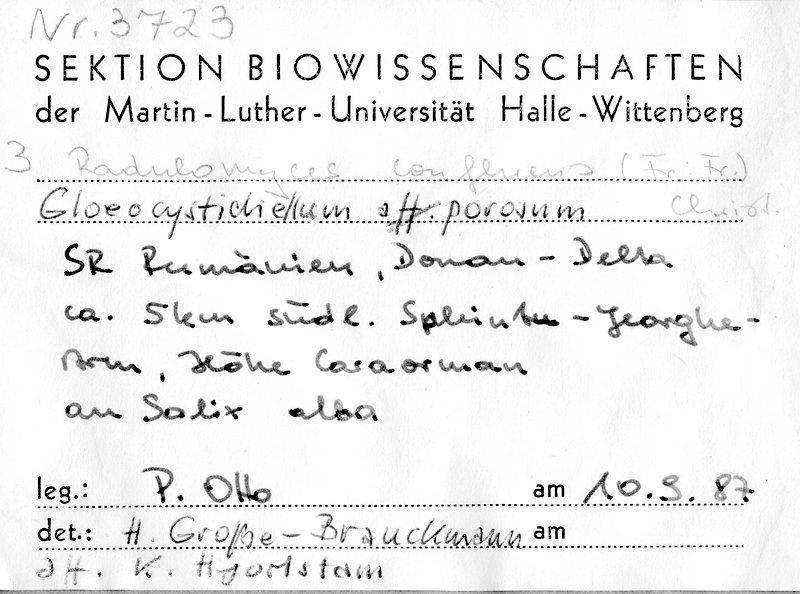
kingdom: Fungi
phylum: Basidiomycota
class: Agaricomycetes
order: Russulales
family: Stereaceae
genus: Gloeocystidiellum
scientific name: Gloeocystidiellum porosum
